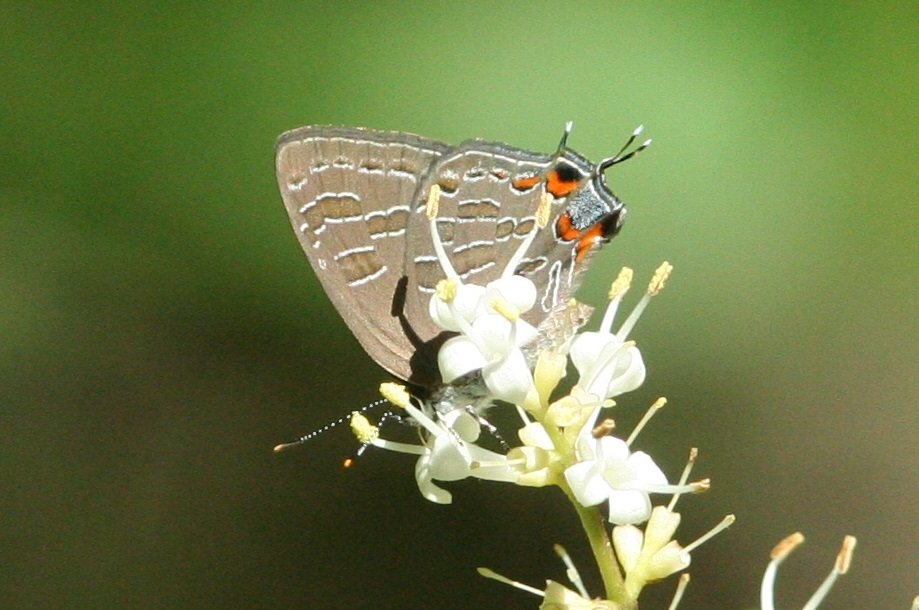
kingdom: Animalia
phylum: Arthropoda
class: Insecta
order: Lepidoptera
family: Lycaenidae
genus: Satyrium
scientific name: Satyrium liparops
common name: Striped Hairstreak
